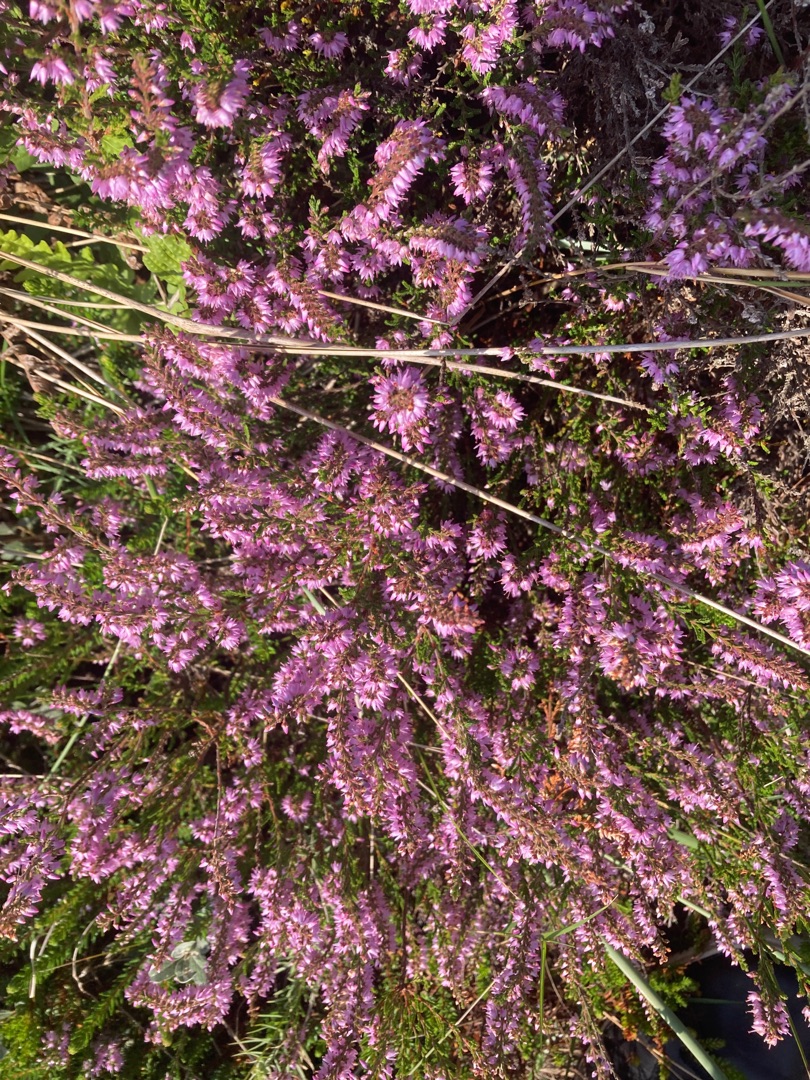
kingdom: Plantae
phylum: Tracheophyta
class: Magnoliopsida
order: Ericales
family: Ericaceae
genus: Calluna
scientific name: Calluna vulgaris
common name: Hedelyng
